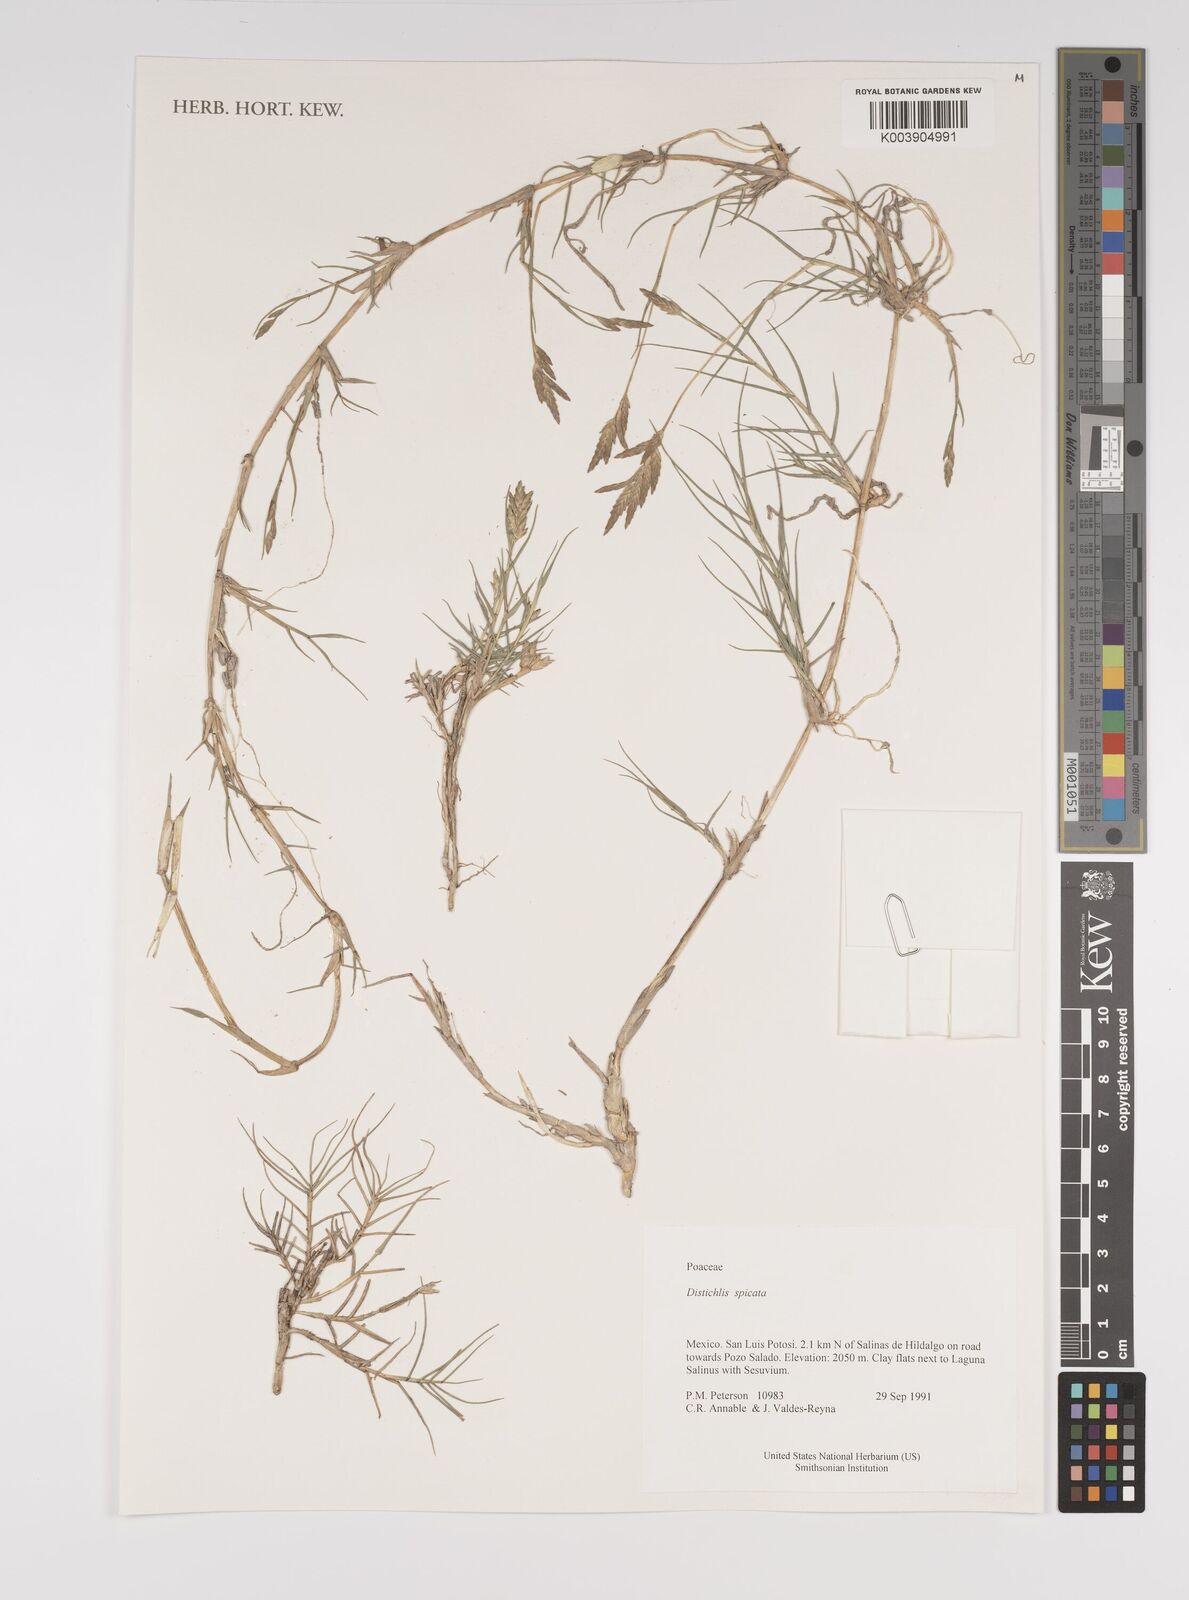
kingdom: Plantae
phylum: Tracheophyta
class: Liliopsida
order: Poales
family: Poaceae
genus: Distichlis
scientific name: Distichlis spicata
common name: Saltgrass
